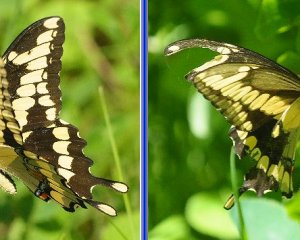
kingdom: Animalia
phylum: Arthropoda
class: Insecta
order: Lepidoptera
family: Papilionidae
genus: Papilio
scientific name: Papilio cresphontes
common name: Eastern Giant Swallowtail
